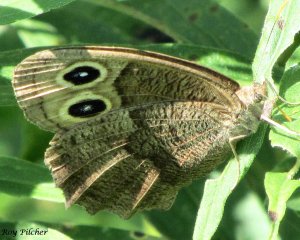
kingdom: Animalia
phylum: Arthropoda
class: Insecta
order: Lepidoptera
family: Nymphalidae
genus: Cercyonis
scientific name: Cercyonis pegala
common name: Common Wood-Nymph
